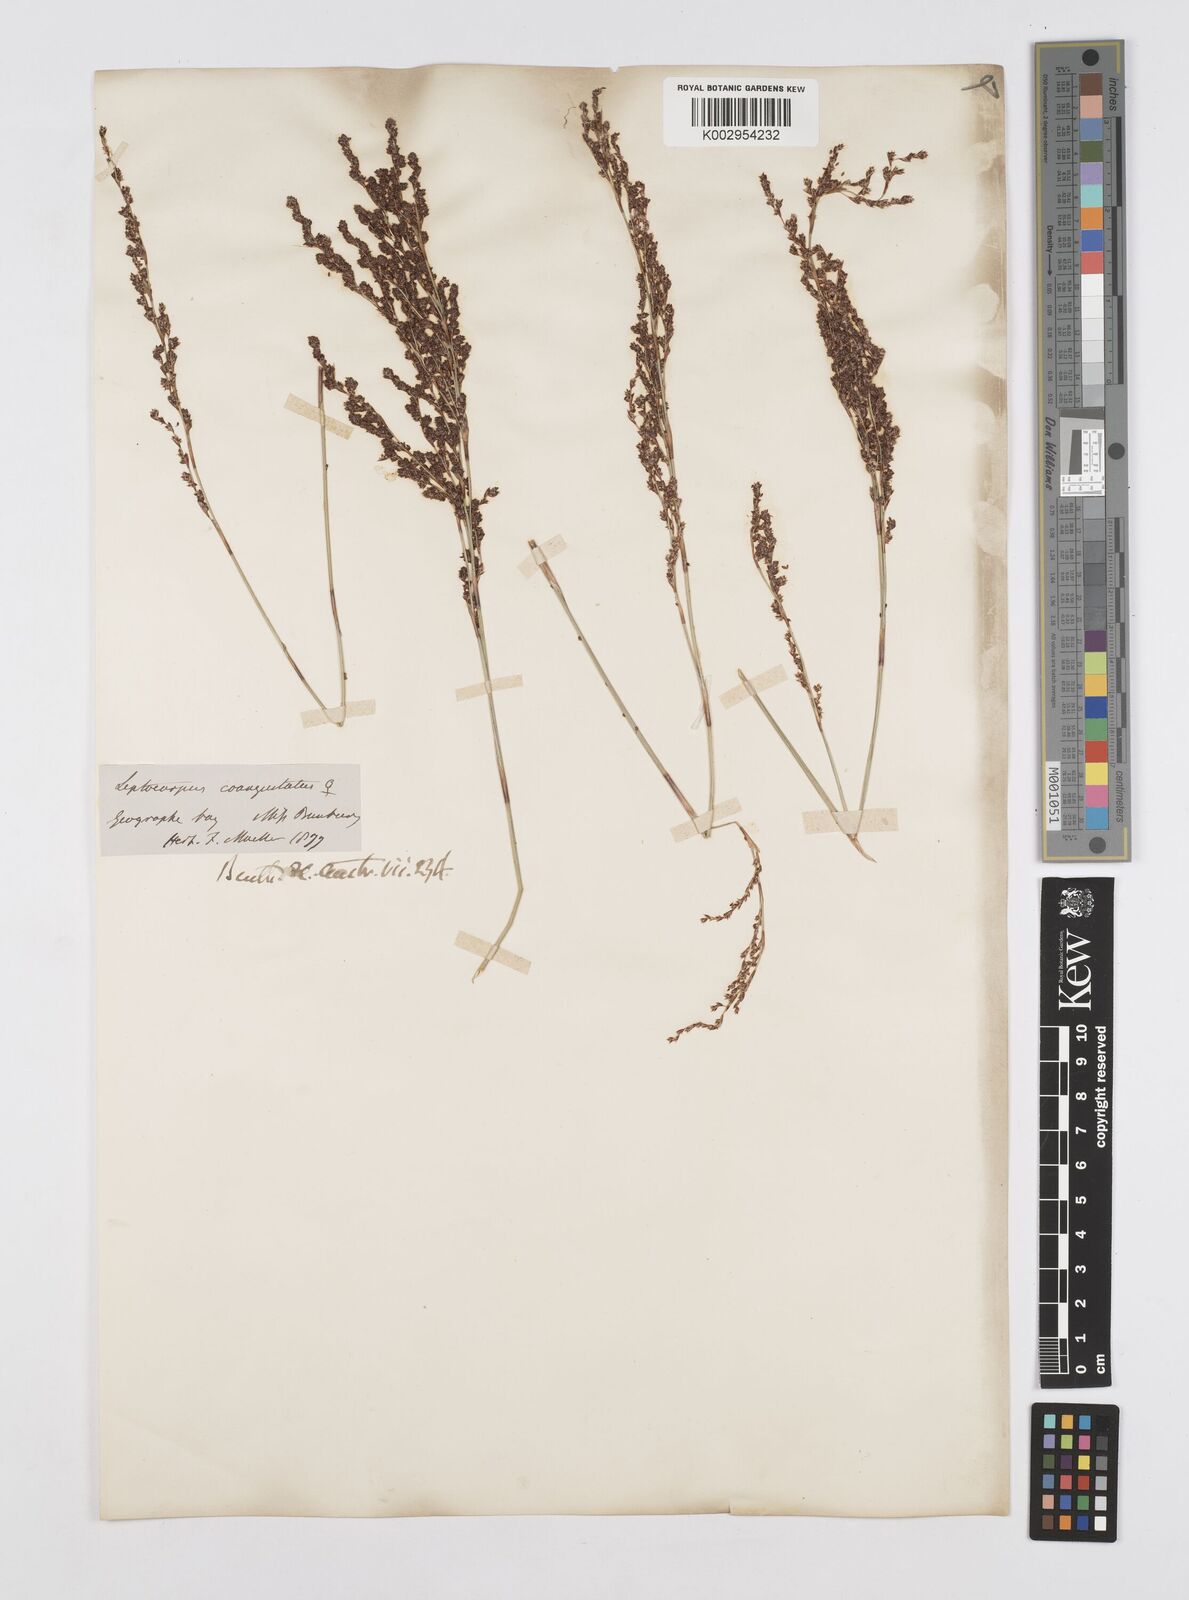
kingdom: Plantae
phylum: Tracheophyta
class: Liliopsida
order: Poales
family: Restionaceae
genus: Leptocarpus
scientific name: Leptocarpus coangustatus
